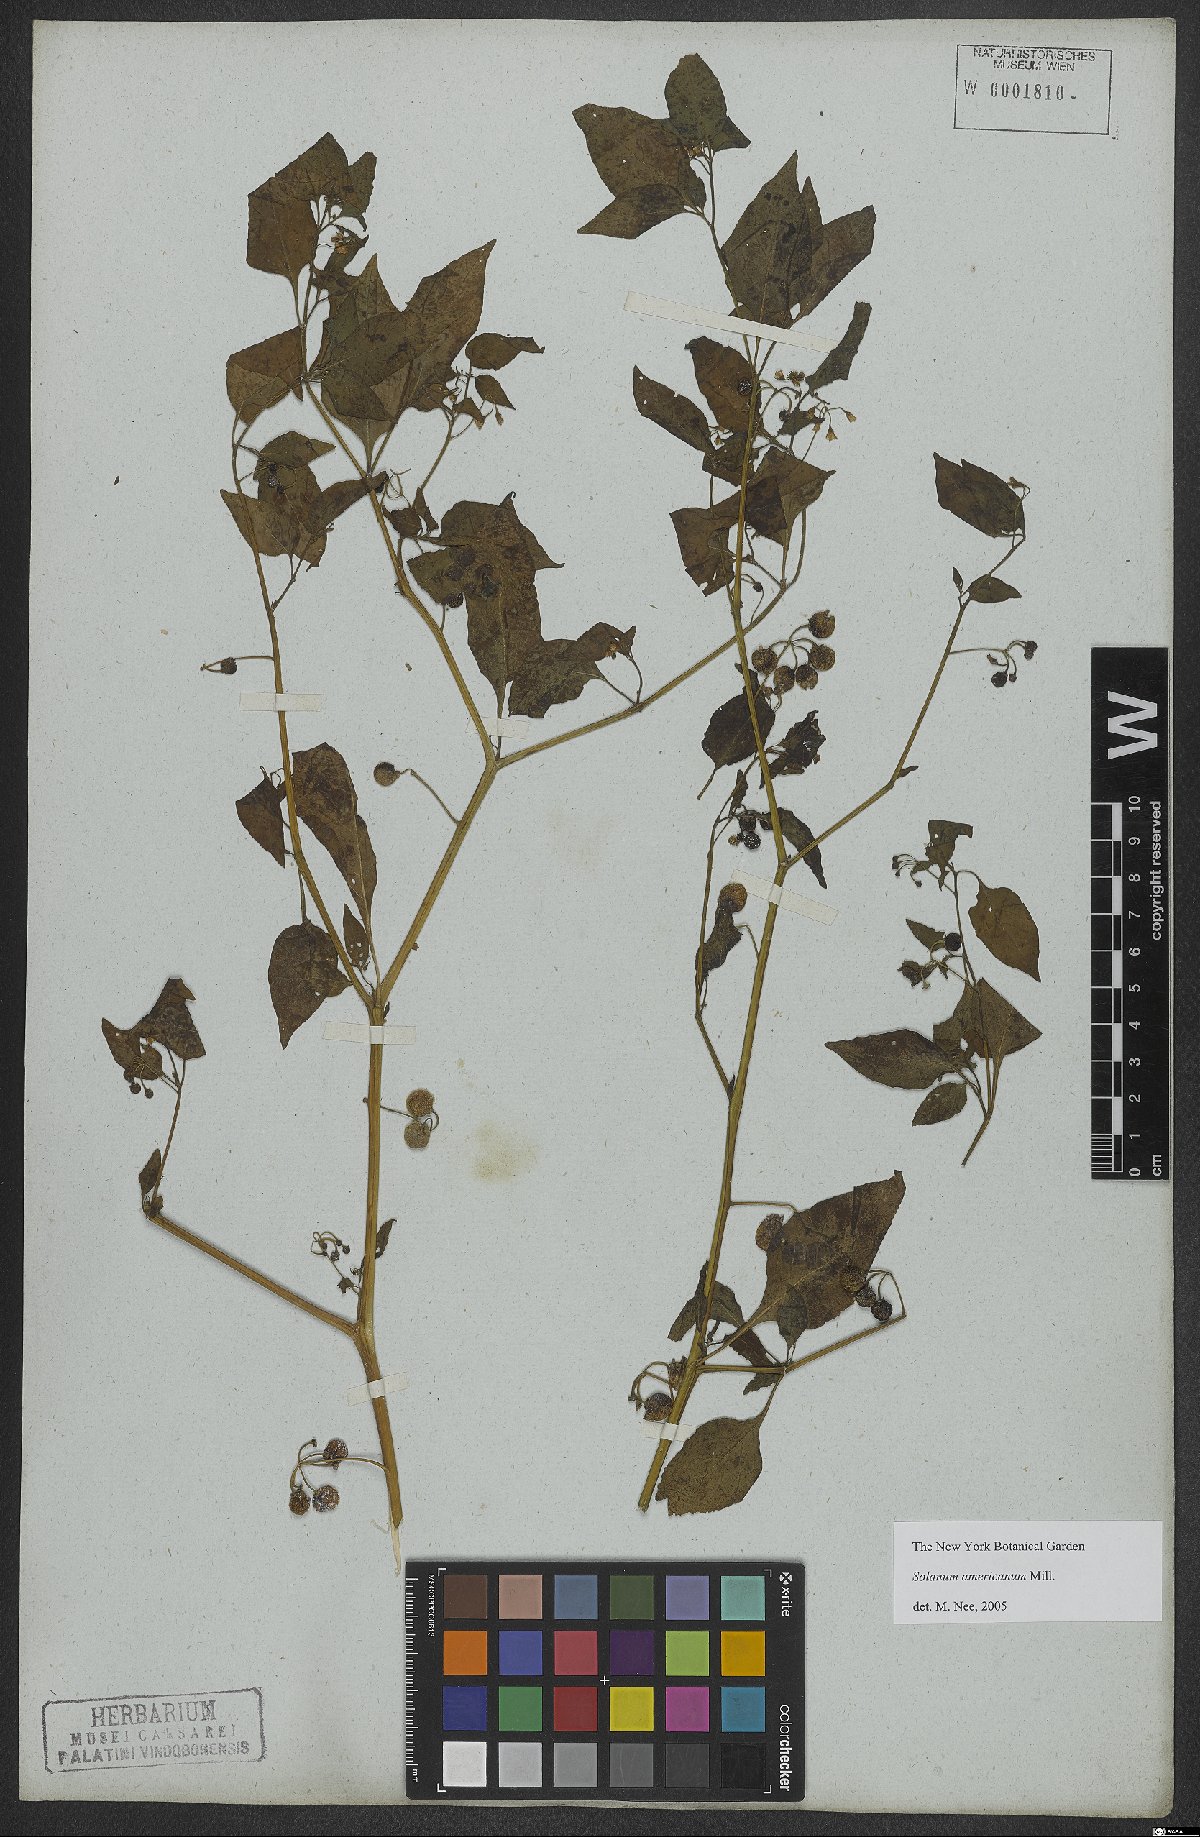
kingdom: Plantae
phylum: Tracheophyta
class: Magnoliopsida
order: Solanales
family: Solanaceae
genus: Solanum
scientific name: Solanum americanum
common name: American black nightshade
